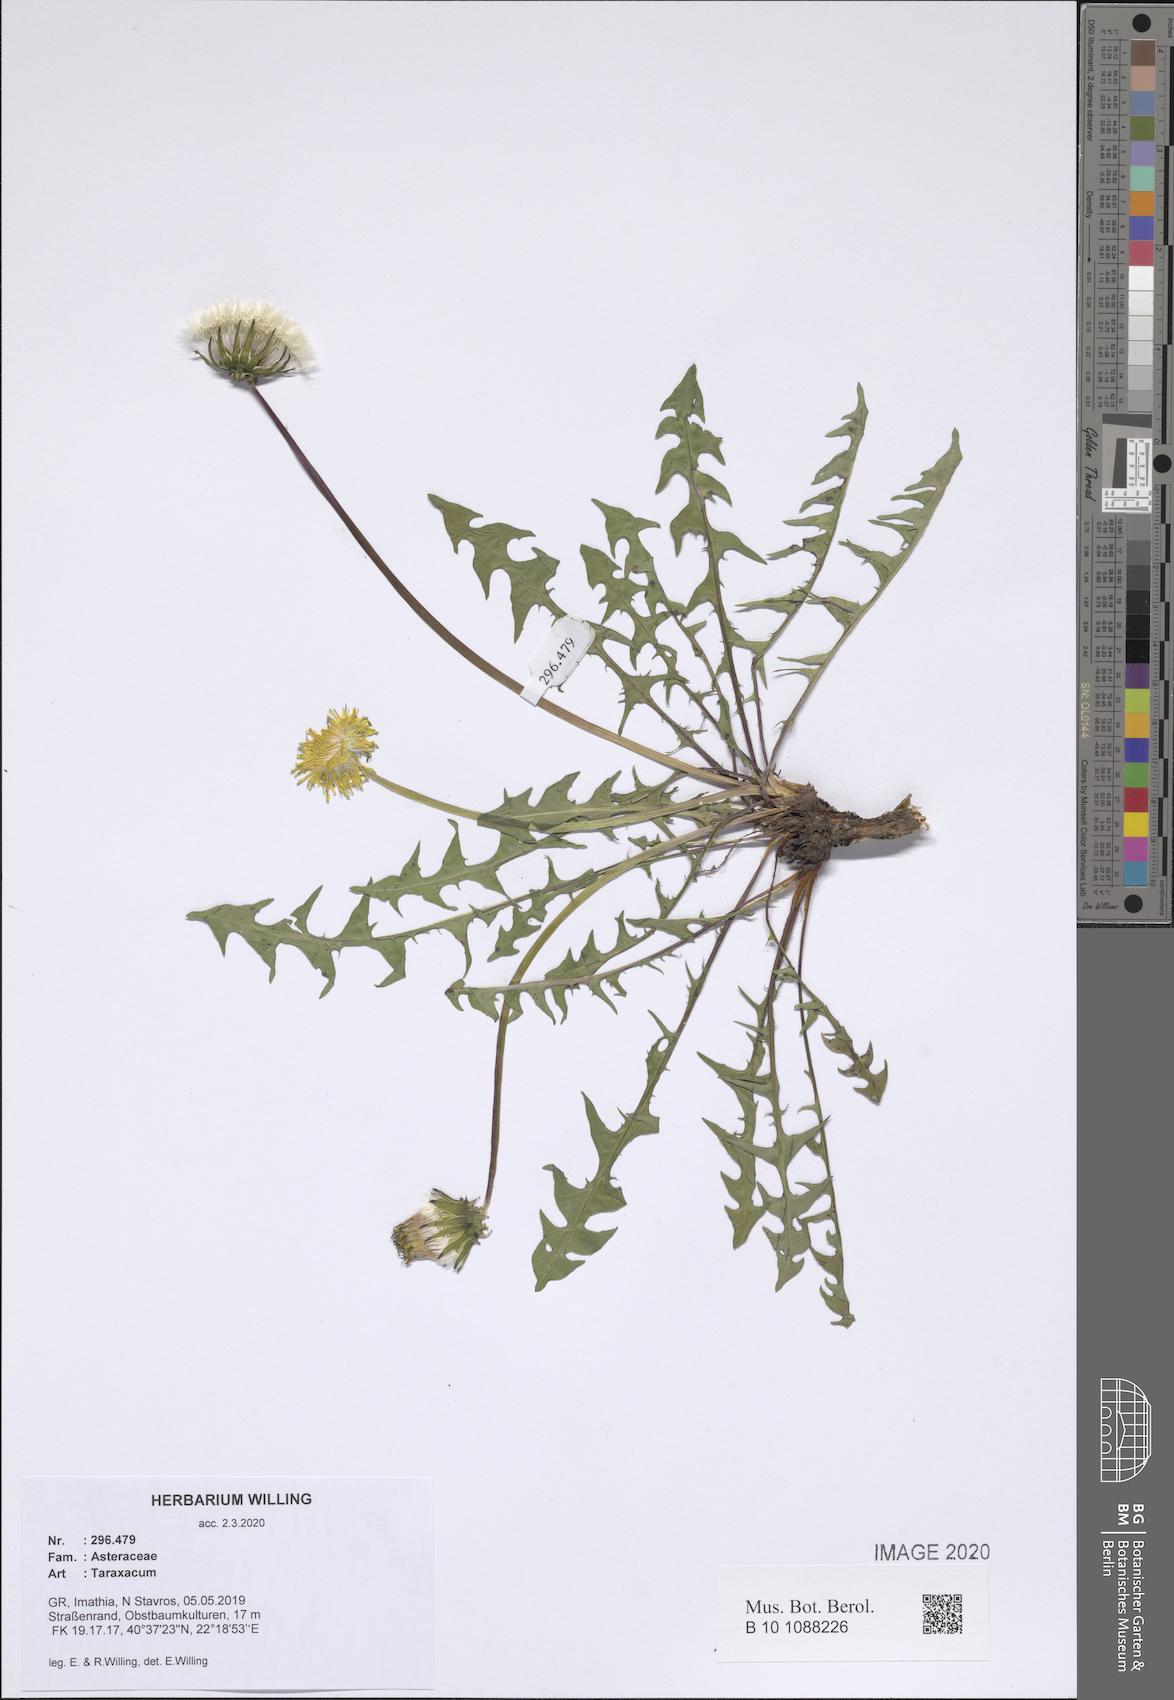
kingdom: Plantae
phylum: Tracheophyta
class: Magnoliopsida
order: Asterales
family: Asteraceae
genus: Taraxacum
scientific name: Taraxacum
